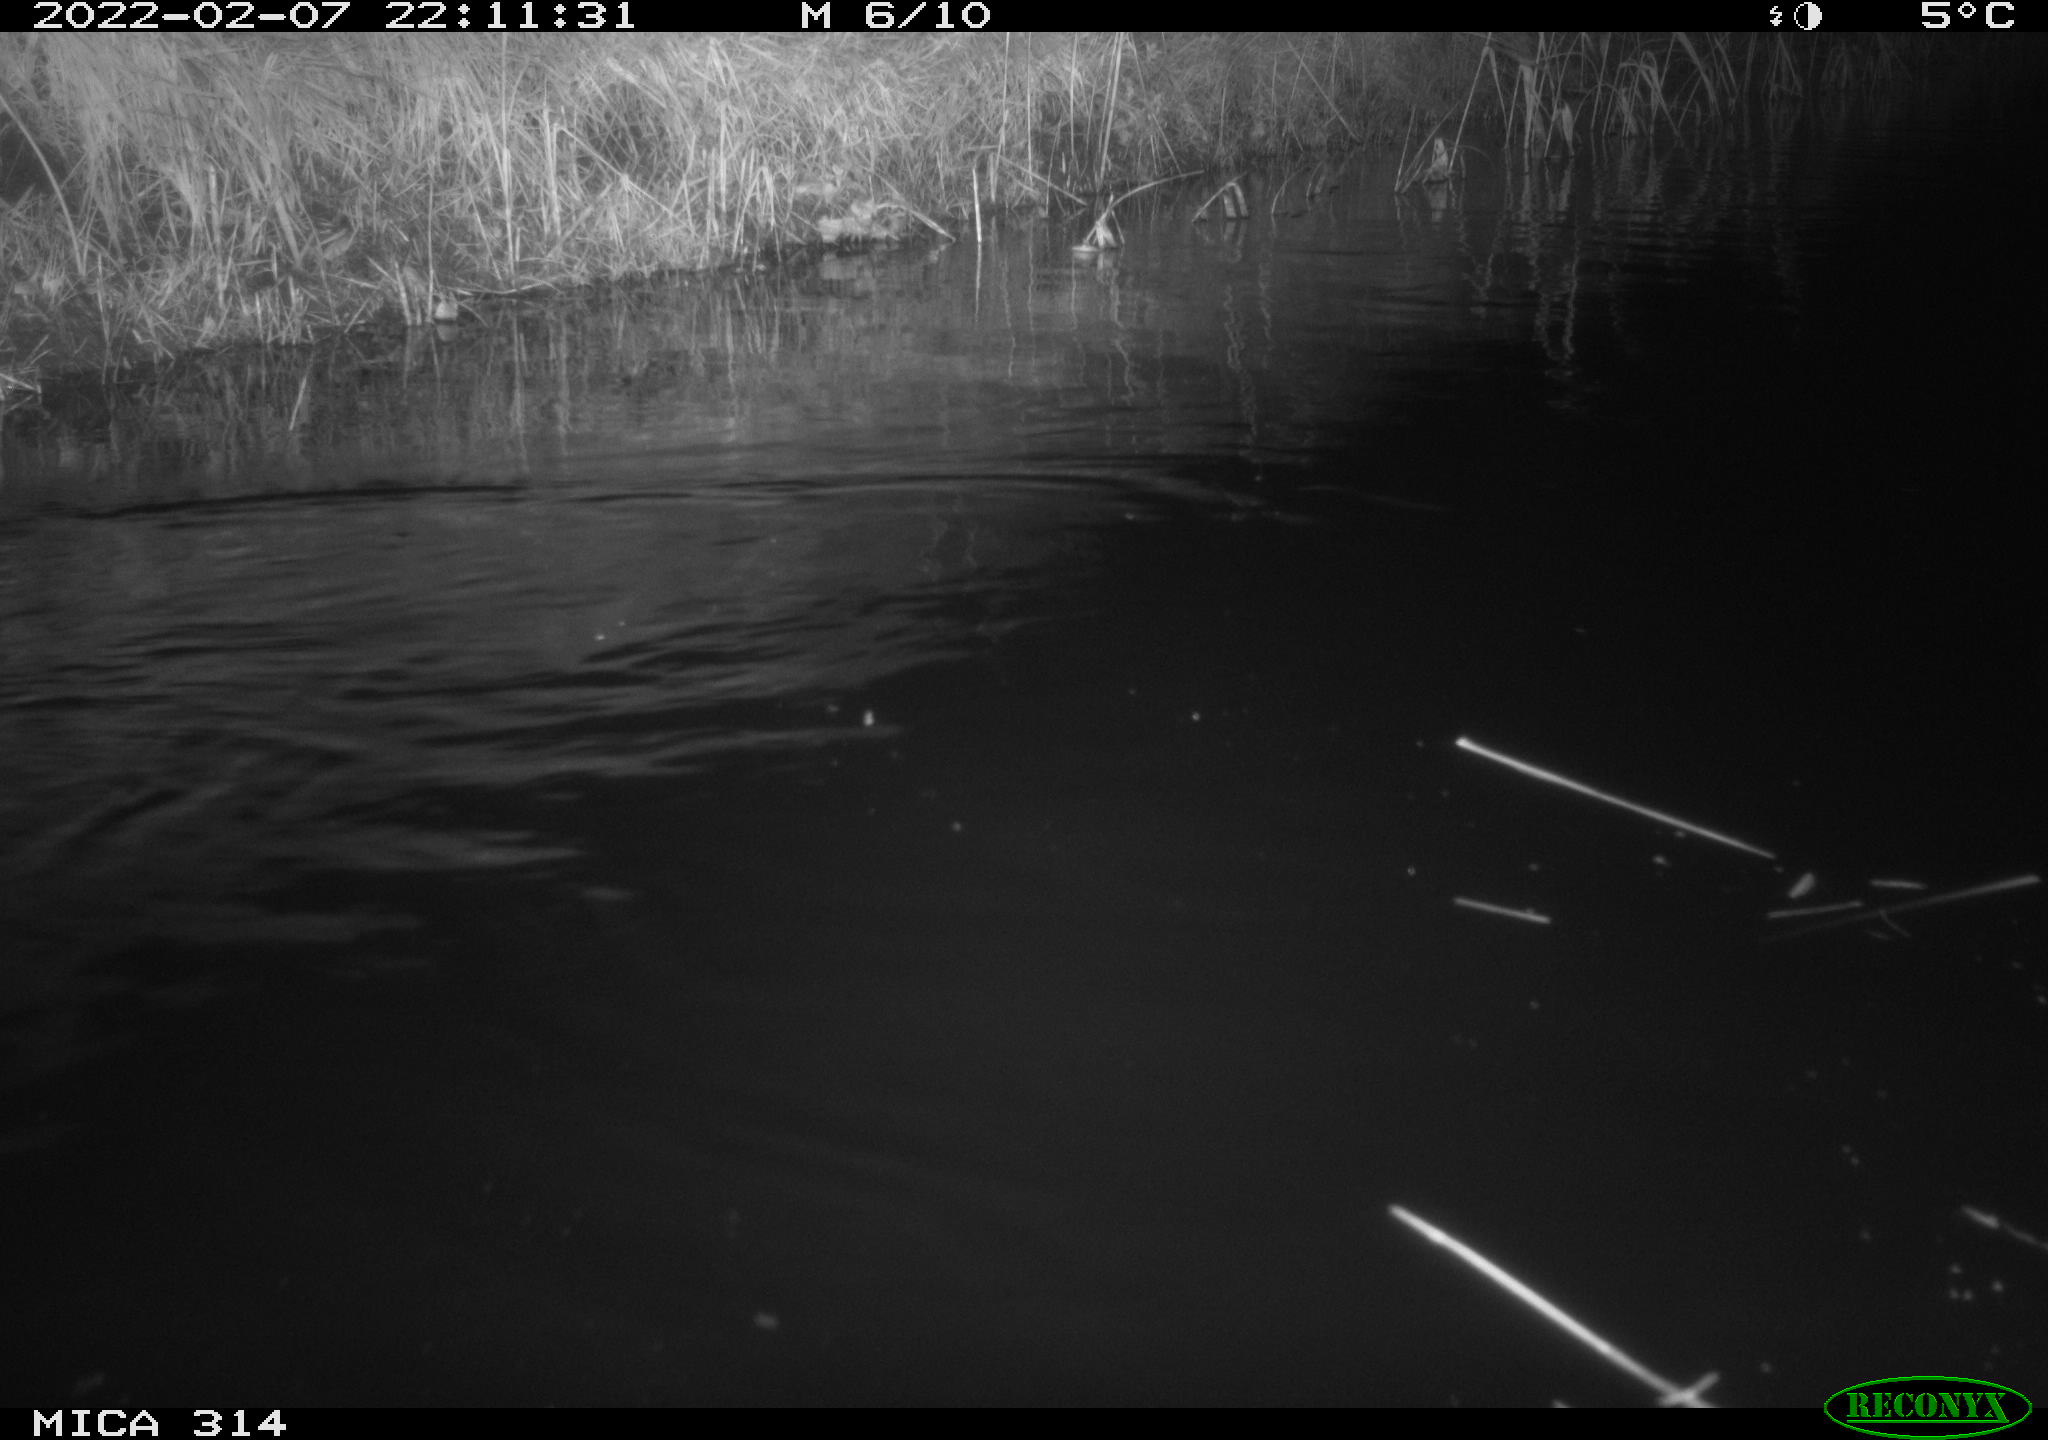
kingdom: Animalia
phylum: Chordata
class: Mammalia
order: Rodentia
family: Muridae
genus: Rattus
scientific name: Rattus norvegicus
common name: Brown rat
